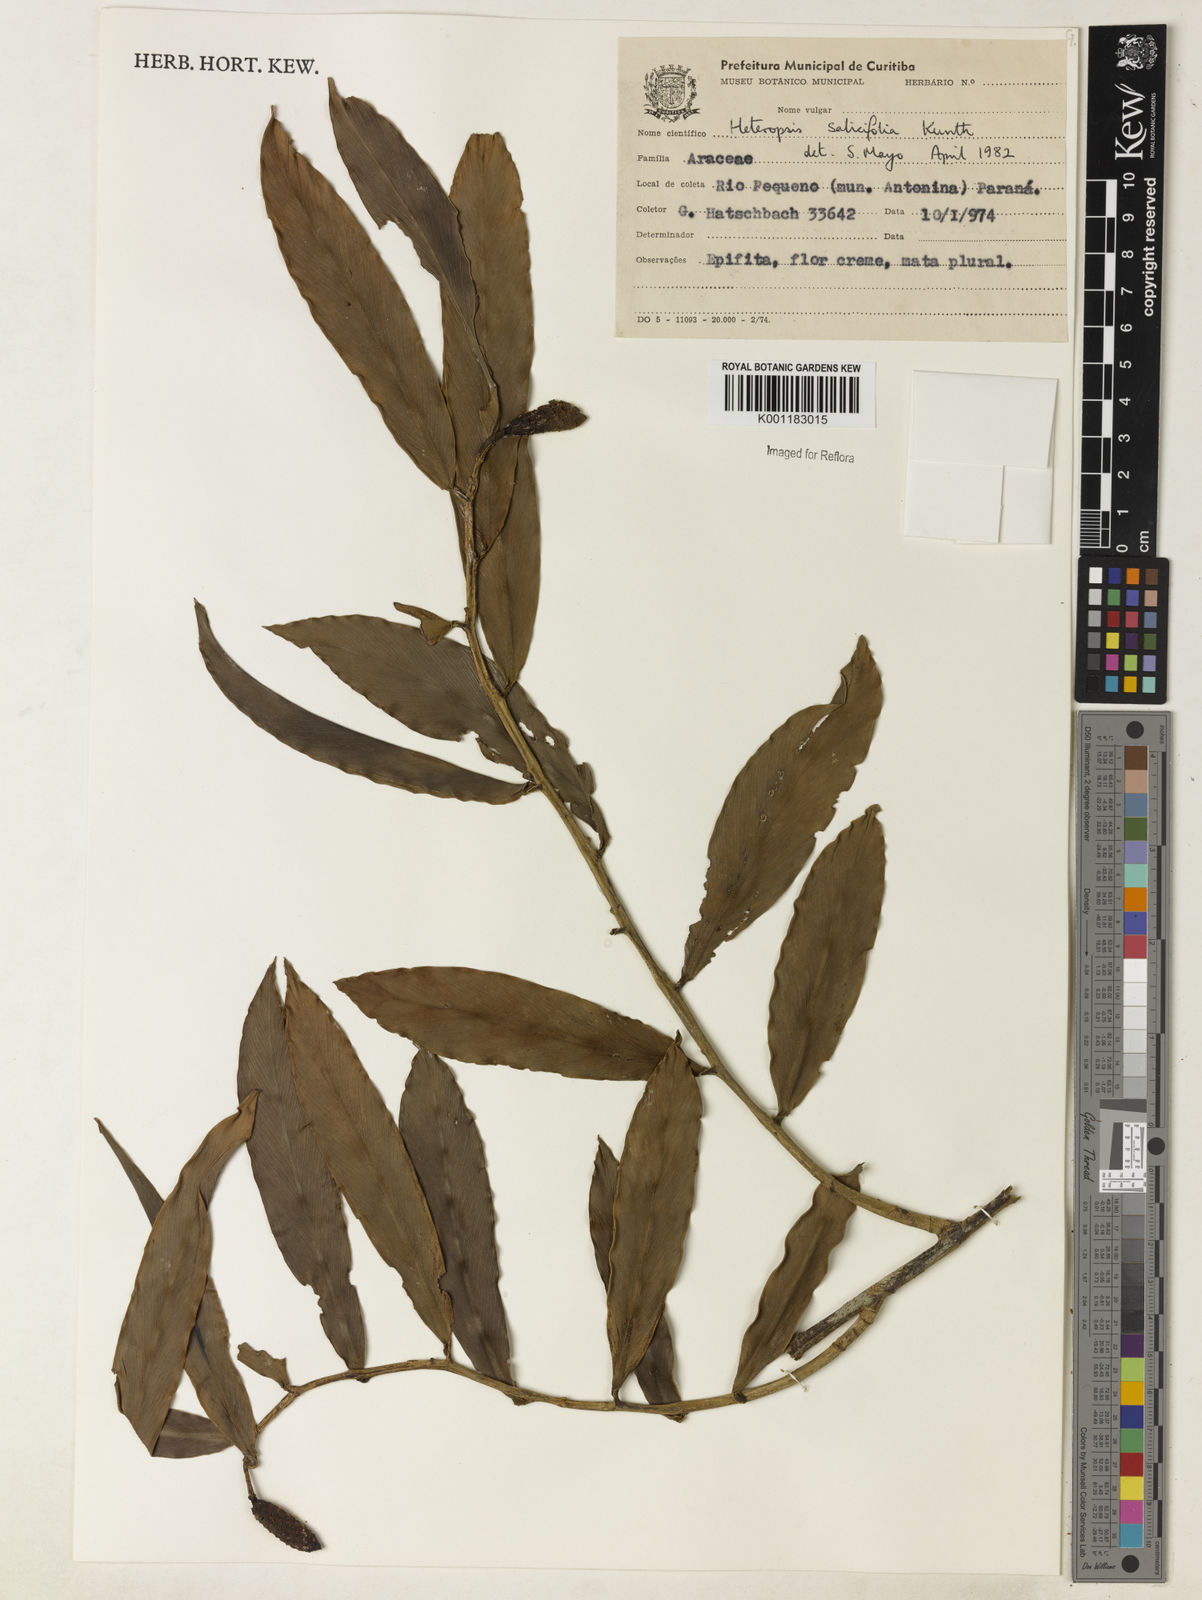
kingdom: Plantae
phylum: Tracheophyta
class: Liliopsida
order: Alismatales
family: Araceae
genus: Heteropsis
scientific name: Heteropsis salicifolia
